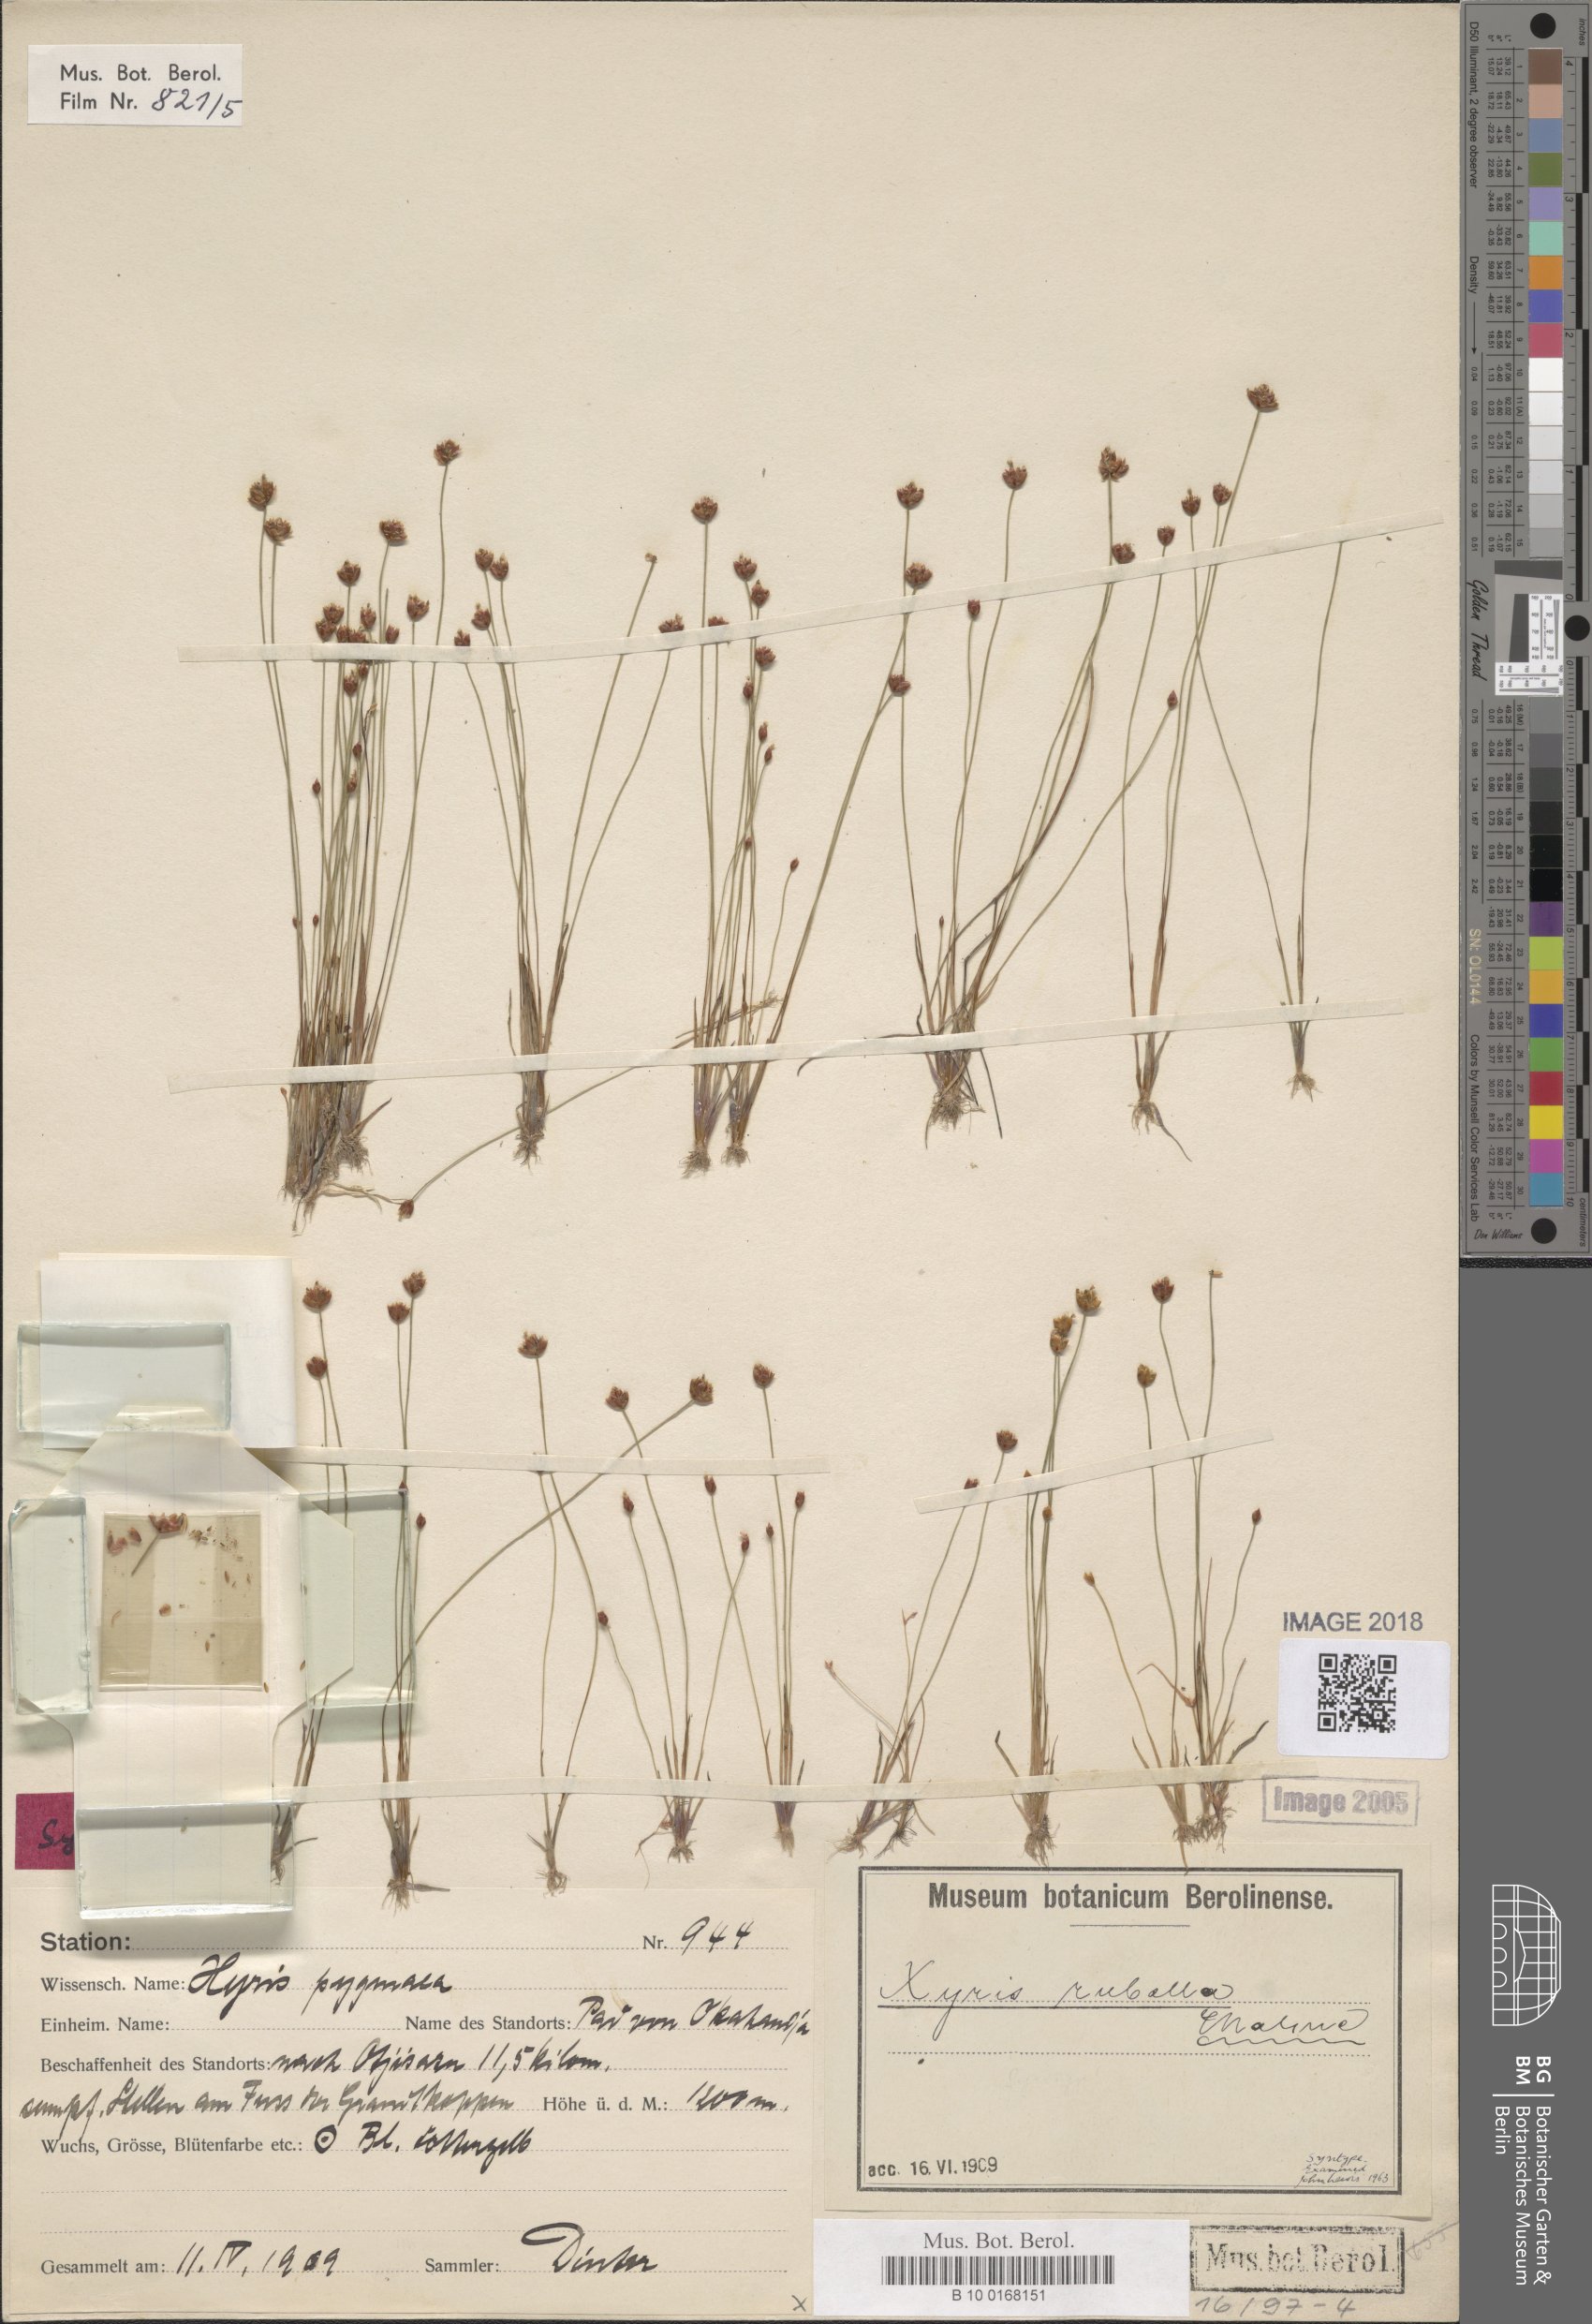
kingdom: Plantae
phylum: Tracheophyta
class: Liliopsida
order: Poales
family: Xyridaceae
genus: Xyris
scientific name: Xyris rubella
